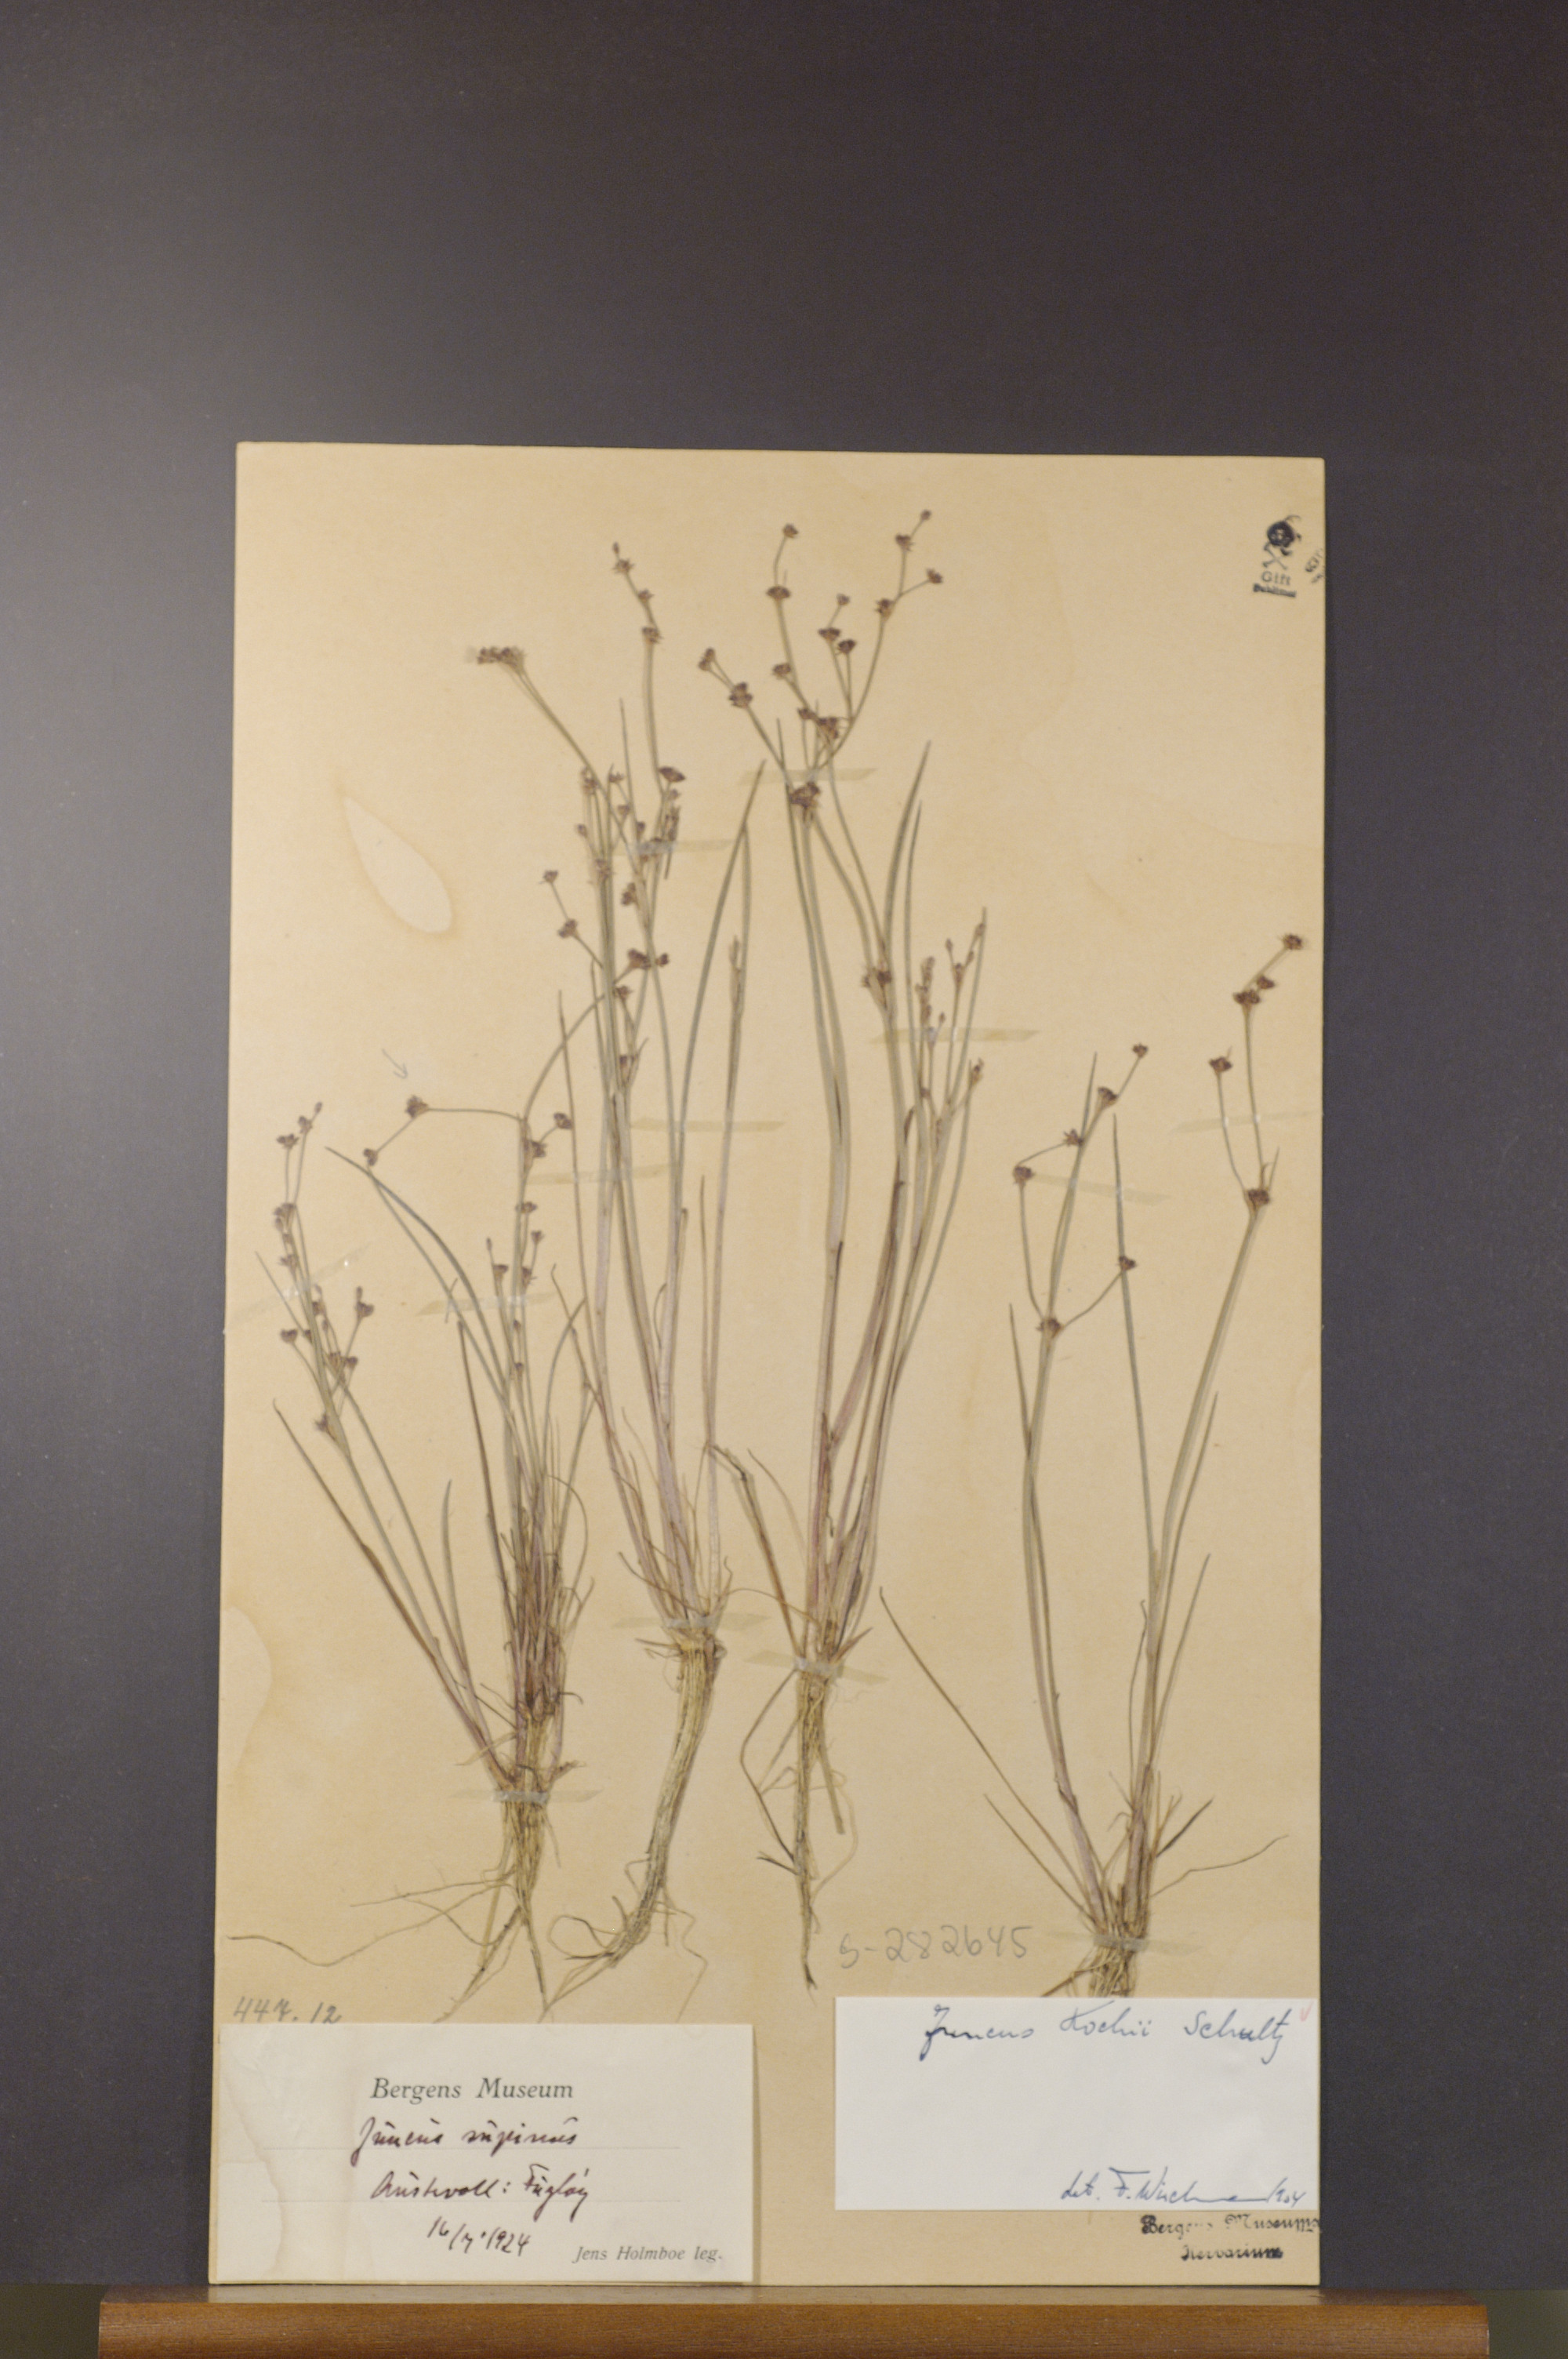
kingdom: Plantae
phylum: Tracheophyta
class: Liliopsida
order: Poales
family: Juncaceae
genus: Juncus
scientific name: Juncus bulbosus
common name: Bulbous rush
